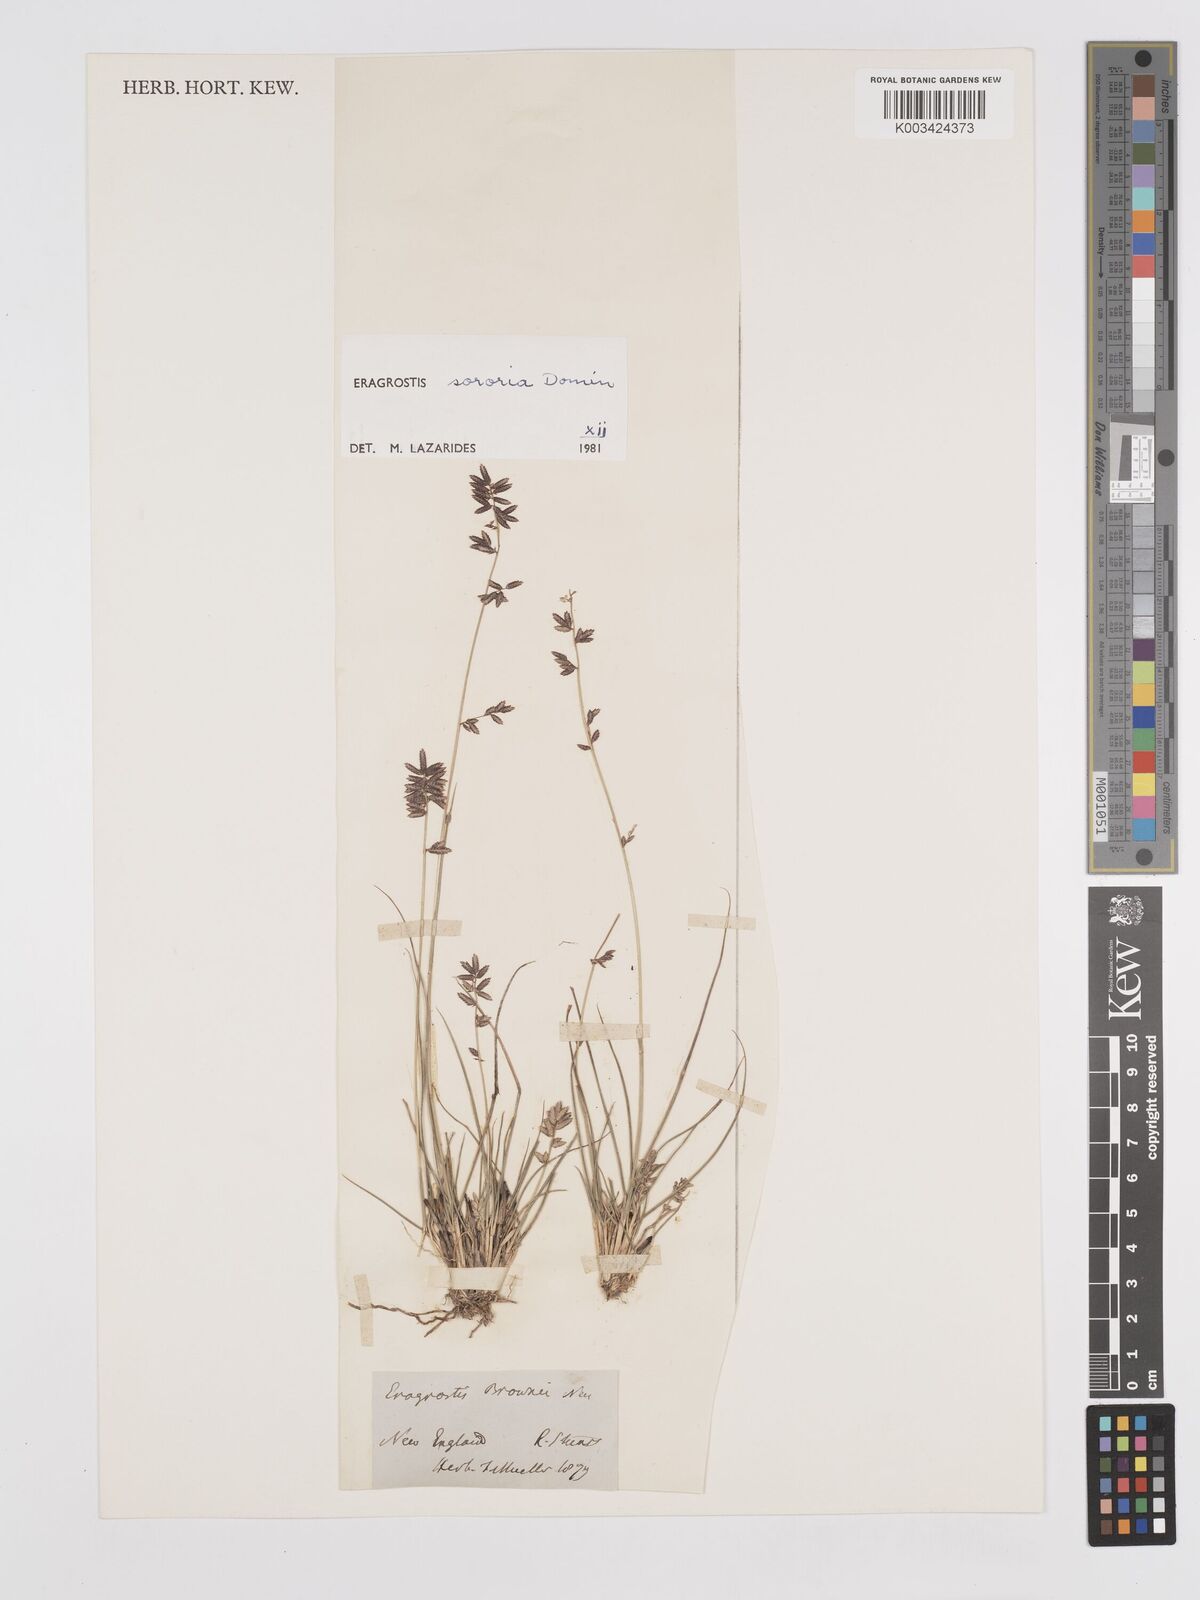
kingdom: Plantae
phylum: Tracheophyta
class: Liliopsida
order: Poales
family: Poaceae
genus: Eragrostis
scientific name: Eragrostis sororia
